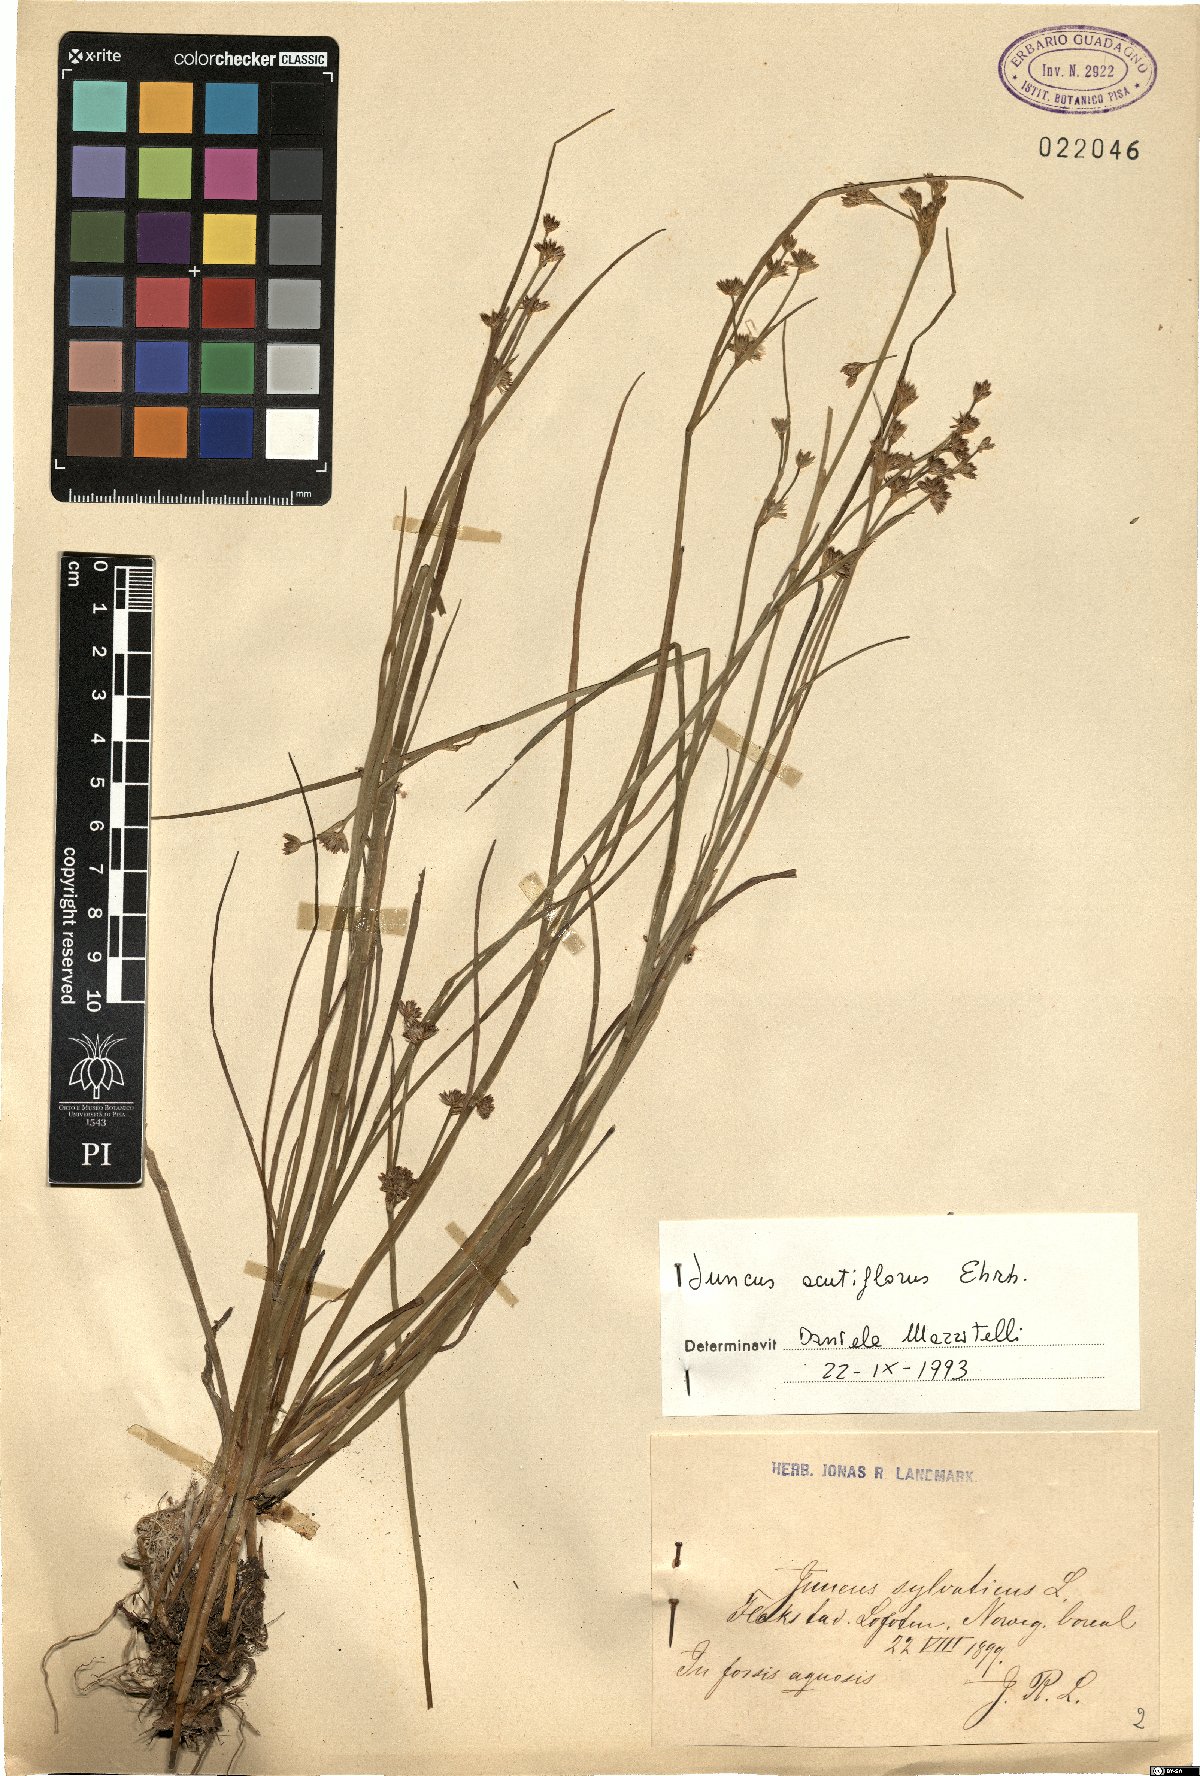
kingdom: Plantae
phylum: Tracheophyta
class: Liliopsida
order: Poales
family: Juncaceae
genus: Juncus
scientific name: Juncus acutiflorus
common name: Sharp-flowered rush
